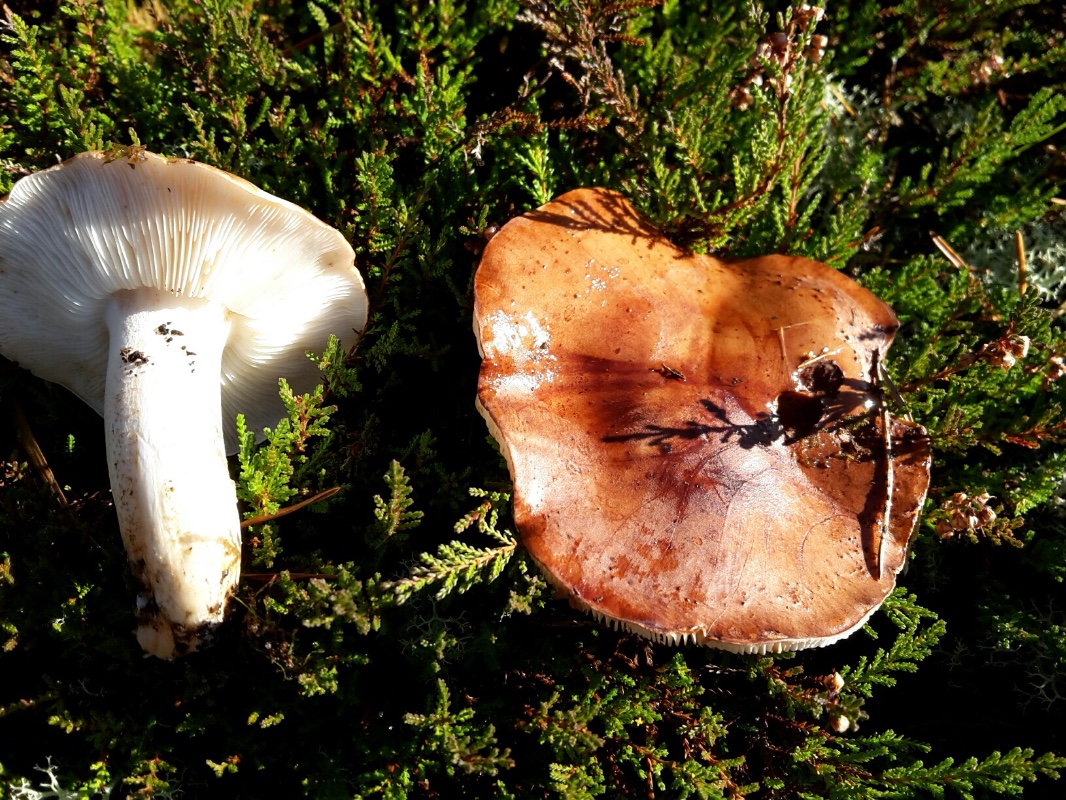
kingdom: Fungi
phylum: Basidiomycota
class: Agaricomycetes
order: Agaricales
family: Tricholomataceae
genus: Tricholoma
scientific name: Tricholoma pessundatum
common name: dråbeplettet ridderhat
